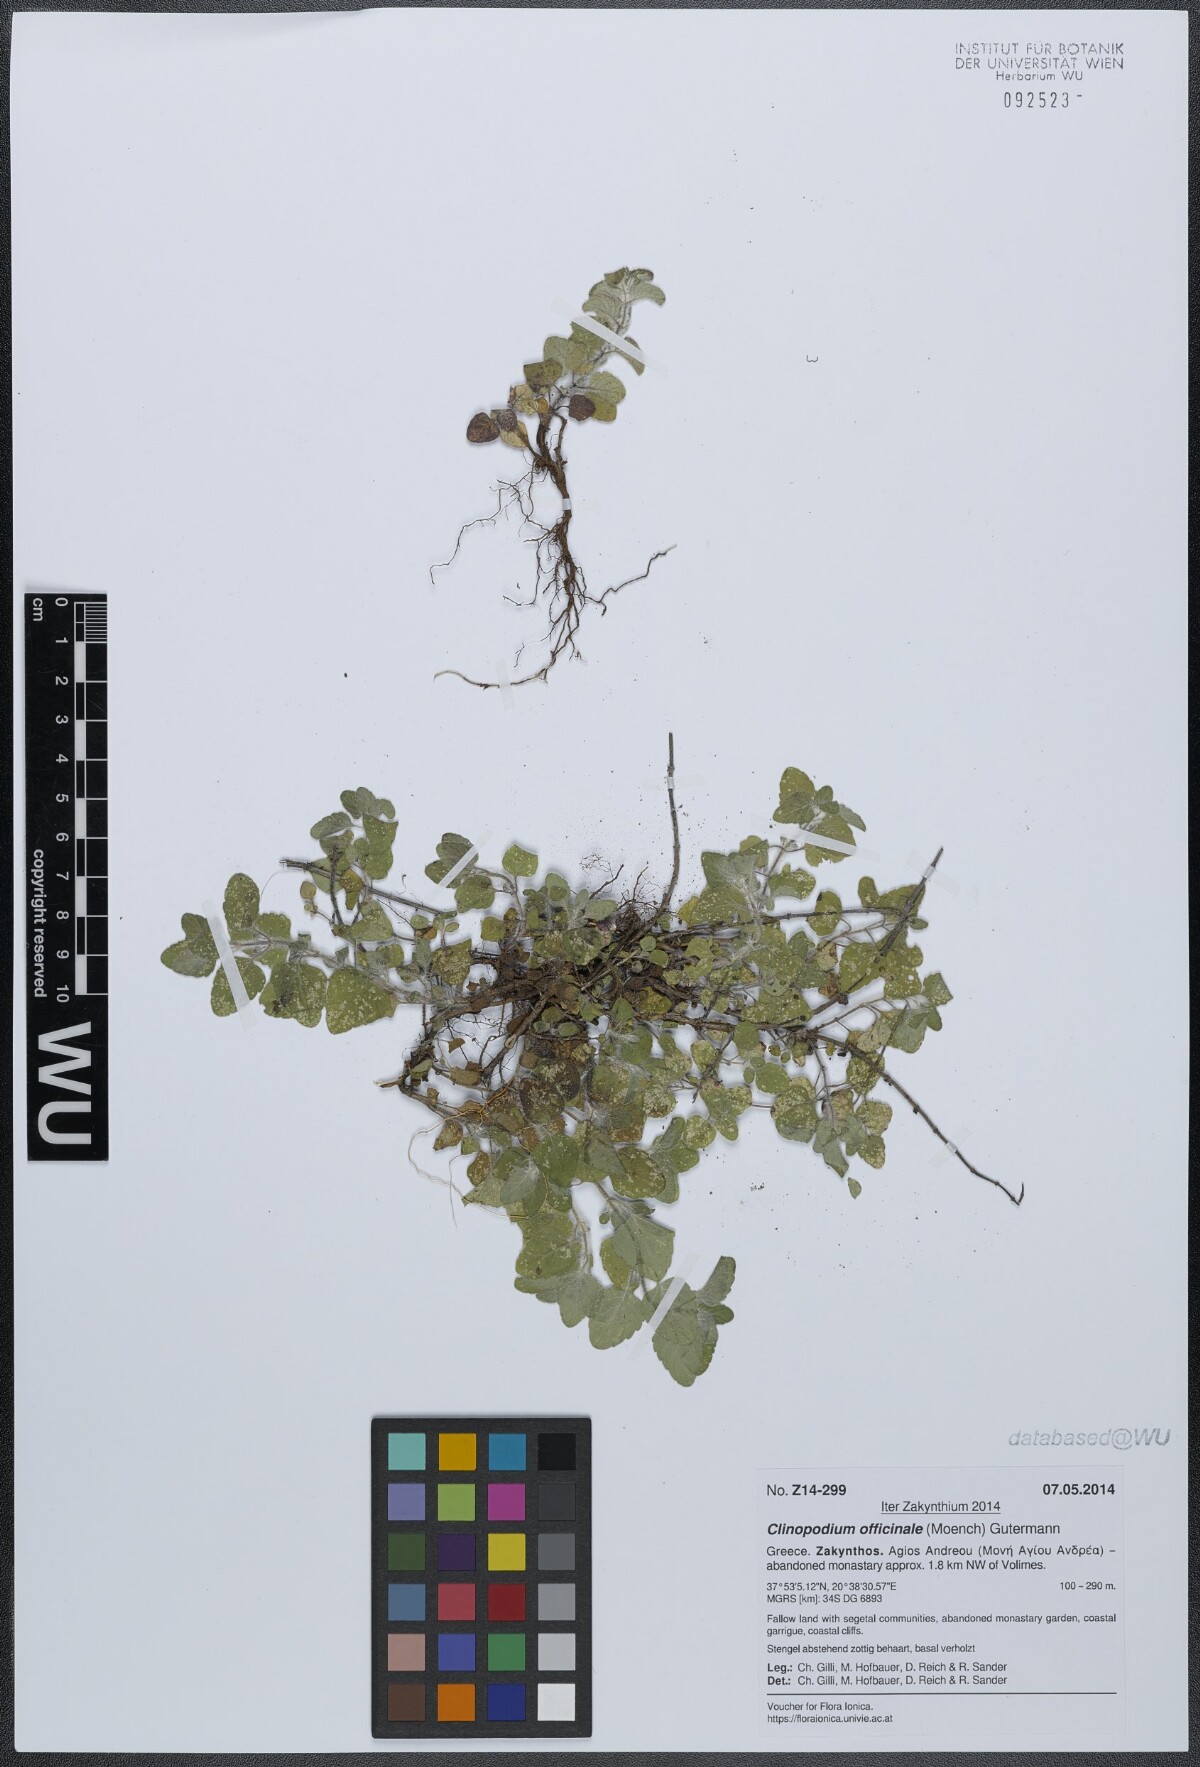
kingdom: Plantae
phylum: Tracheophyta
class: Magnoliopsida
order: Lamiales
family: Lamiaceae
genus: Clinopodium
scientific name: Clinopodium nepeta
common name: Lesser calamint
